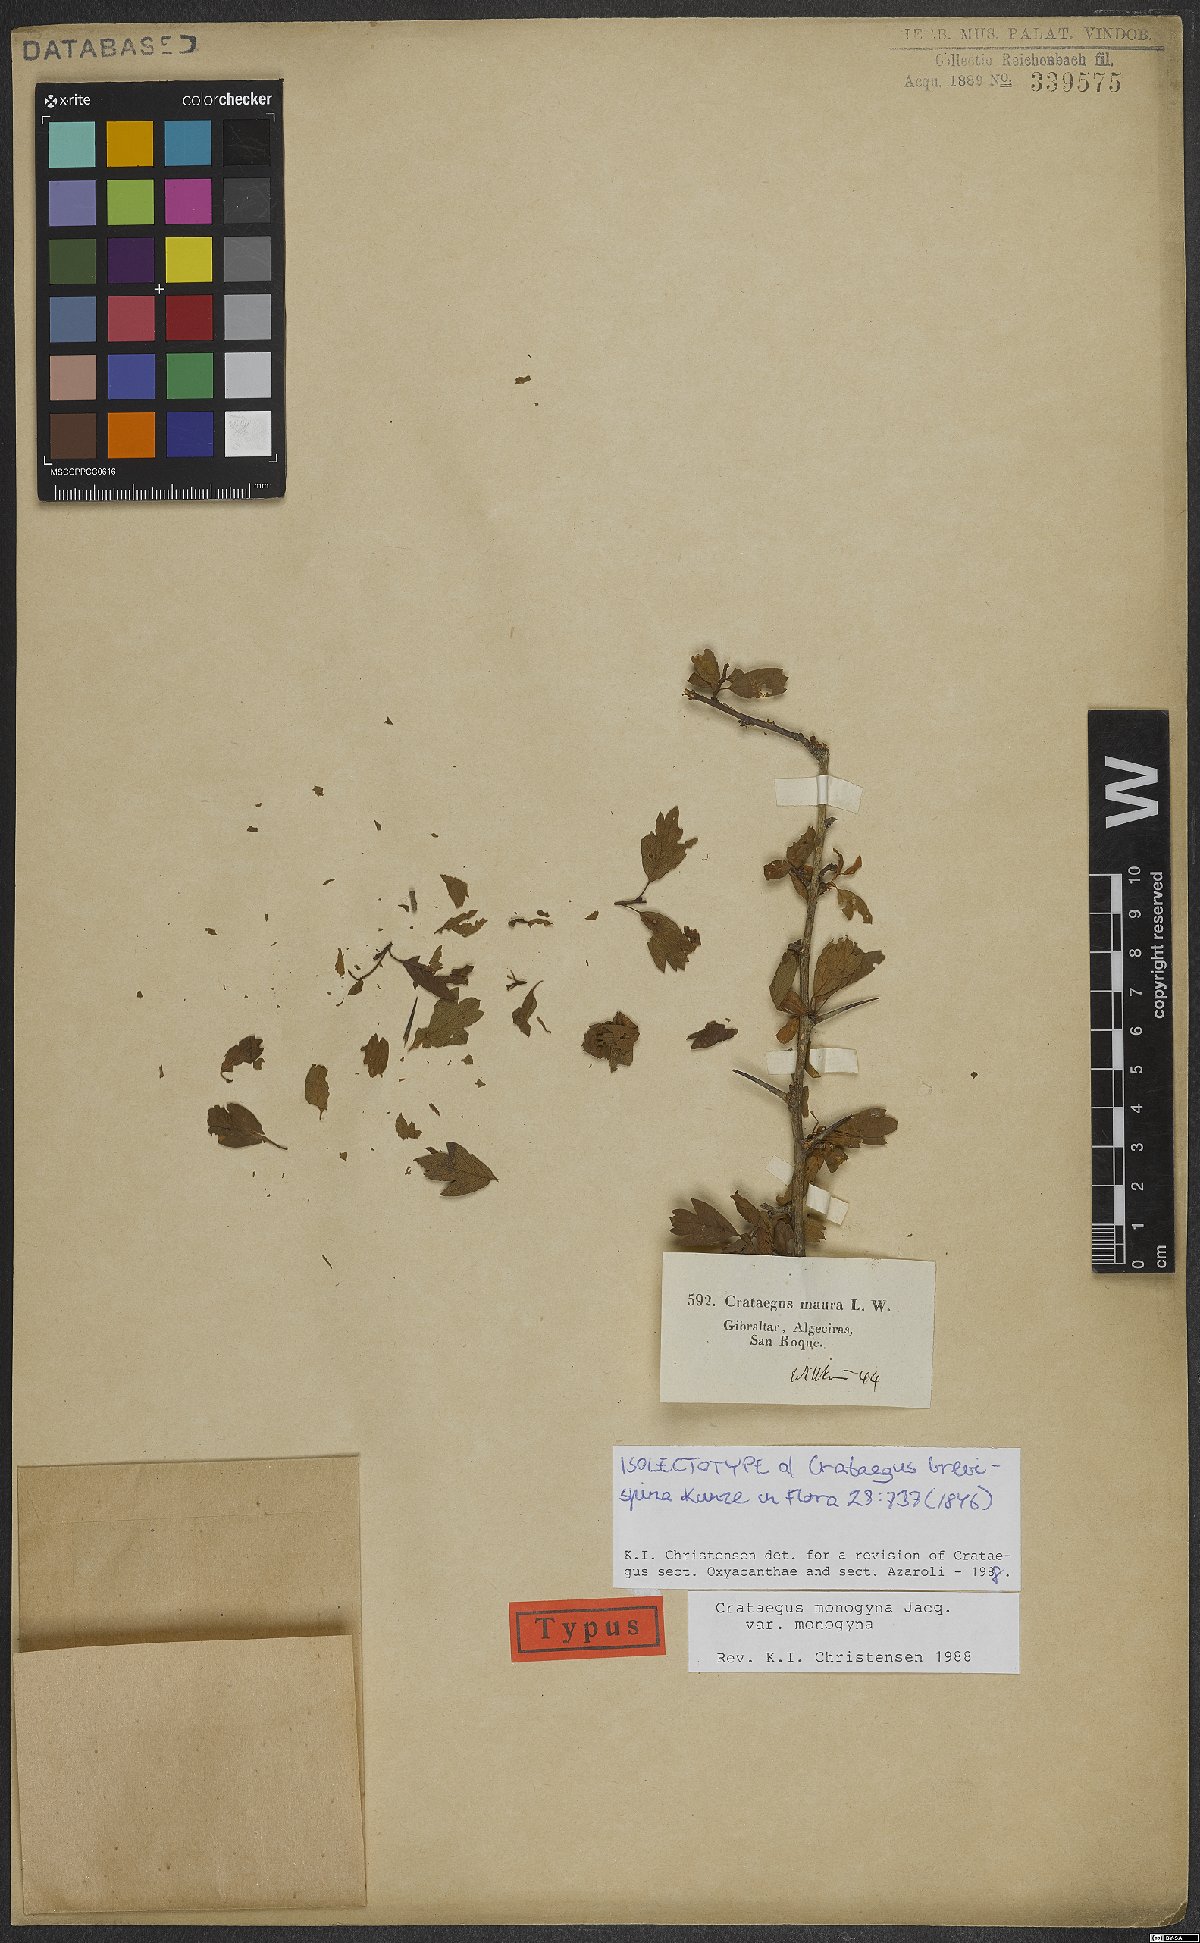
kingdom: Plantae
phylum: Tracheophyta
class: Magnoliopsida
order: Rosales
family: Rosaceae
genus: Crataegus
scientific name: Crataegus monogyna
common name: Hawthorn
